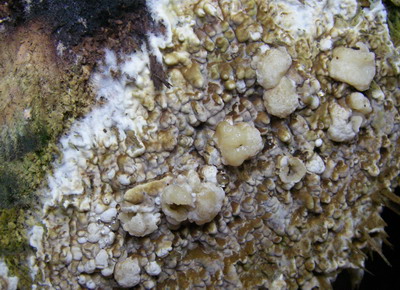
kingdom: Fungi
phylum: Ascomycota
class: Sordariomycetes
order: Xylariales
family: Hypoxylaceae
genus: Nodulisporium
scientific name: Nodulisporium cecidiogenes
